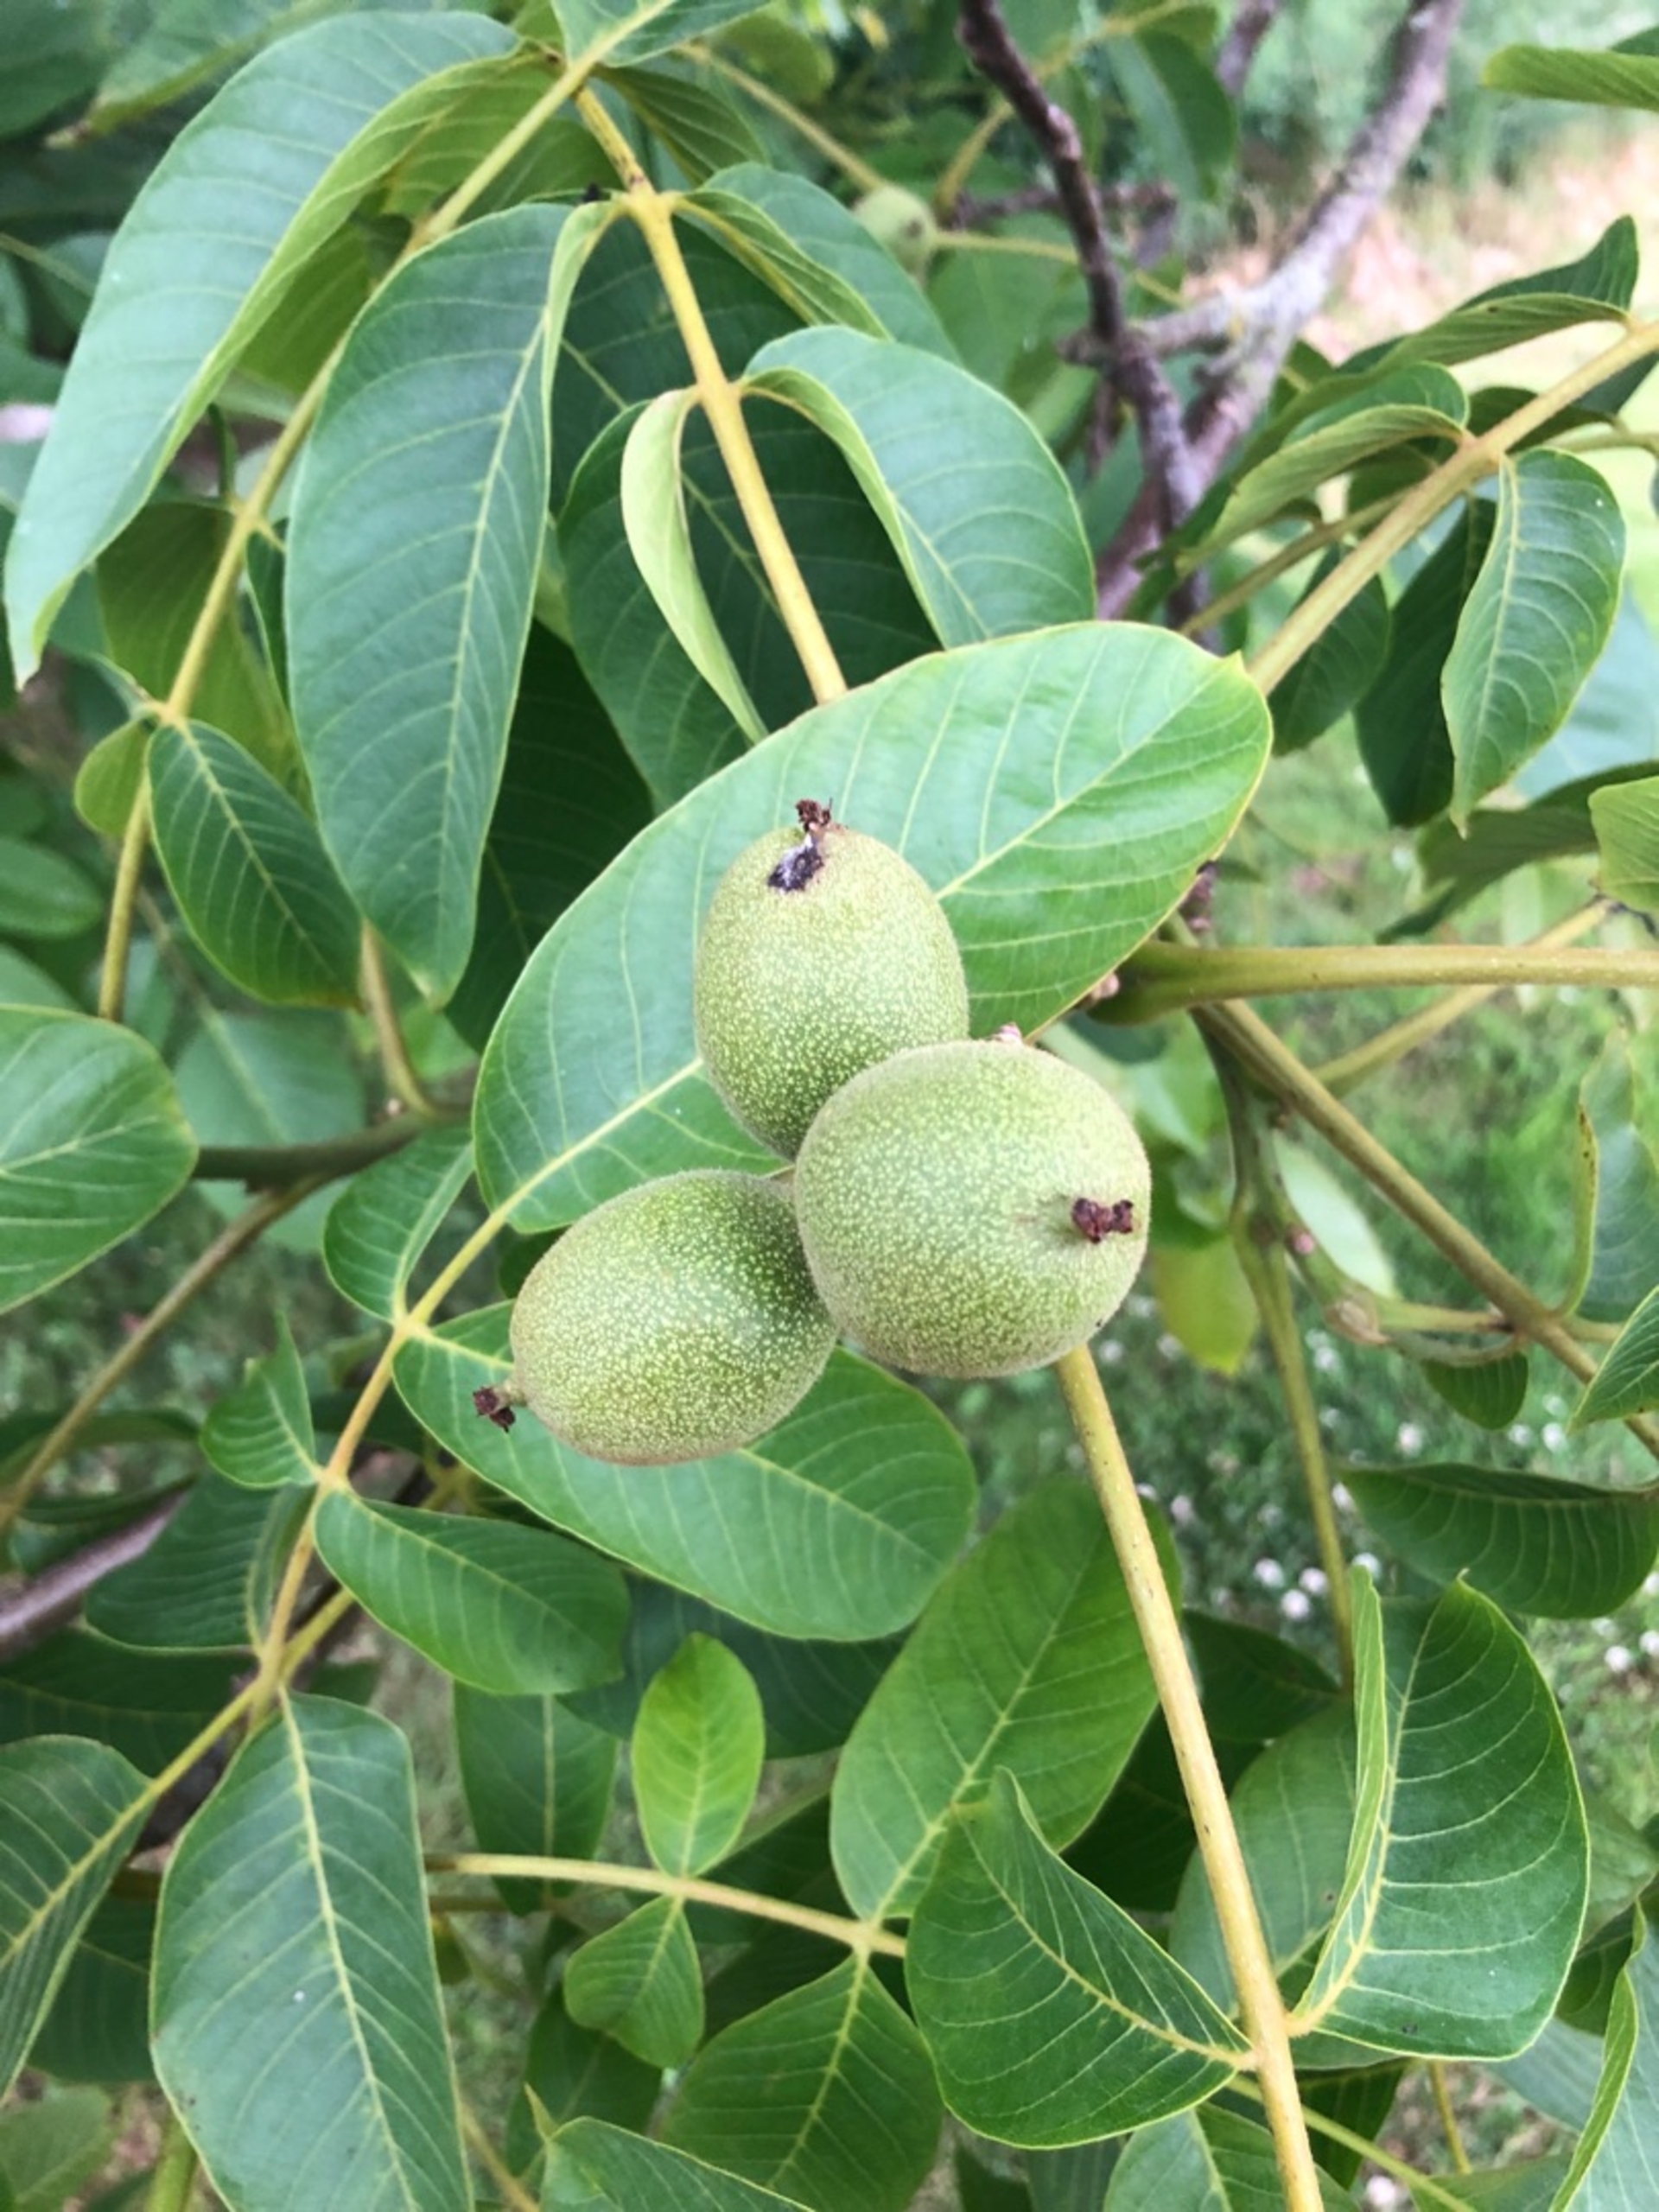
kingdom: Plantae
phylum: Tracheophyta
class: Magnoliopsida
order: Fagales
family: Juglandaceae
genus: Juglans
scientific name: Juglans regia
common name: Almindelig valnød
